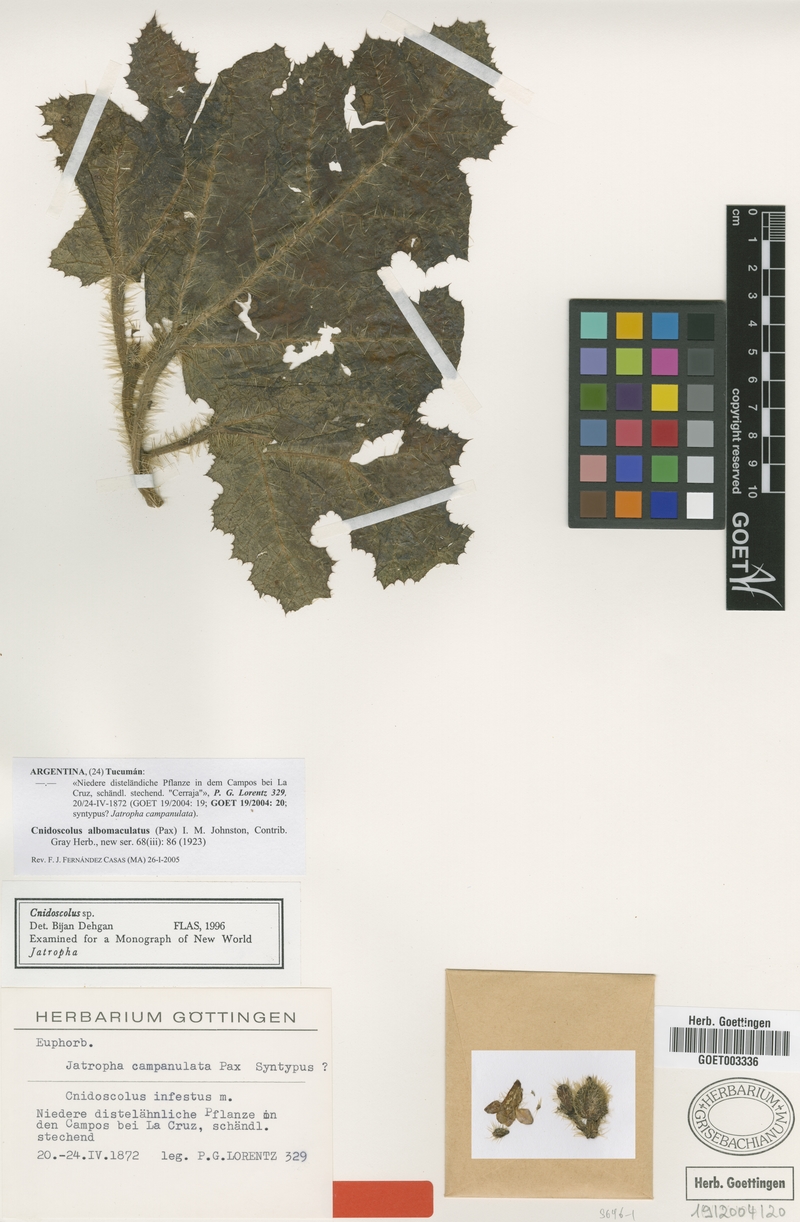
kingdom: Plantae
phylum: Tracheophyta
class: Magnoliopsida
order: Malpighiales
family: Euphorbiaceae
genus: Cnidoscolus
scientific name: Cnidoscolus albomaculatus
